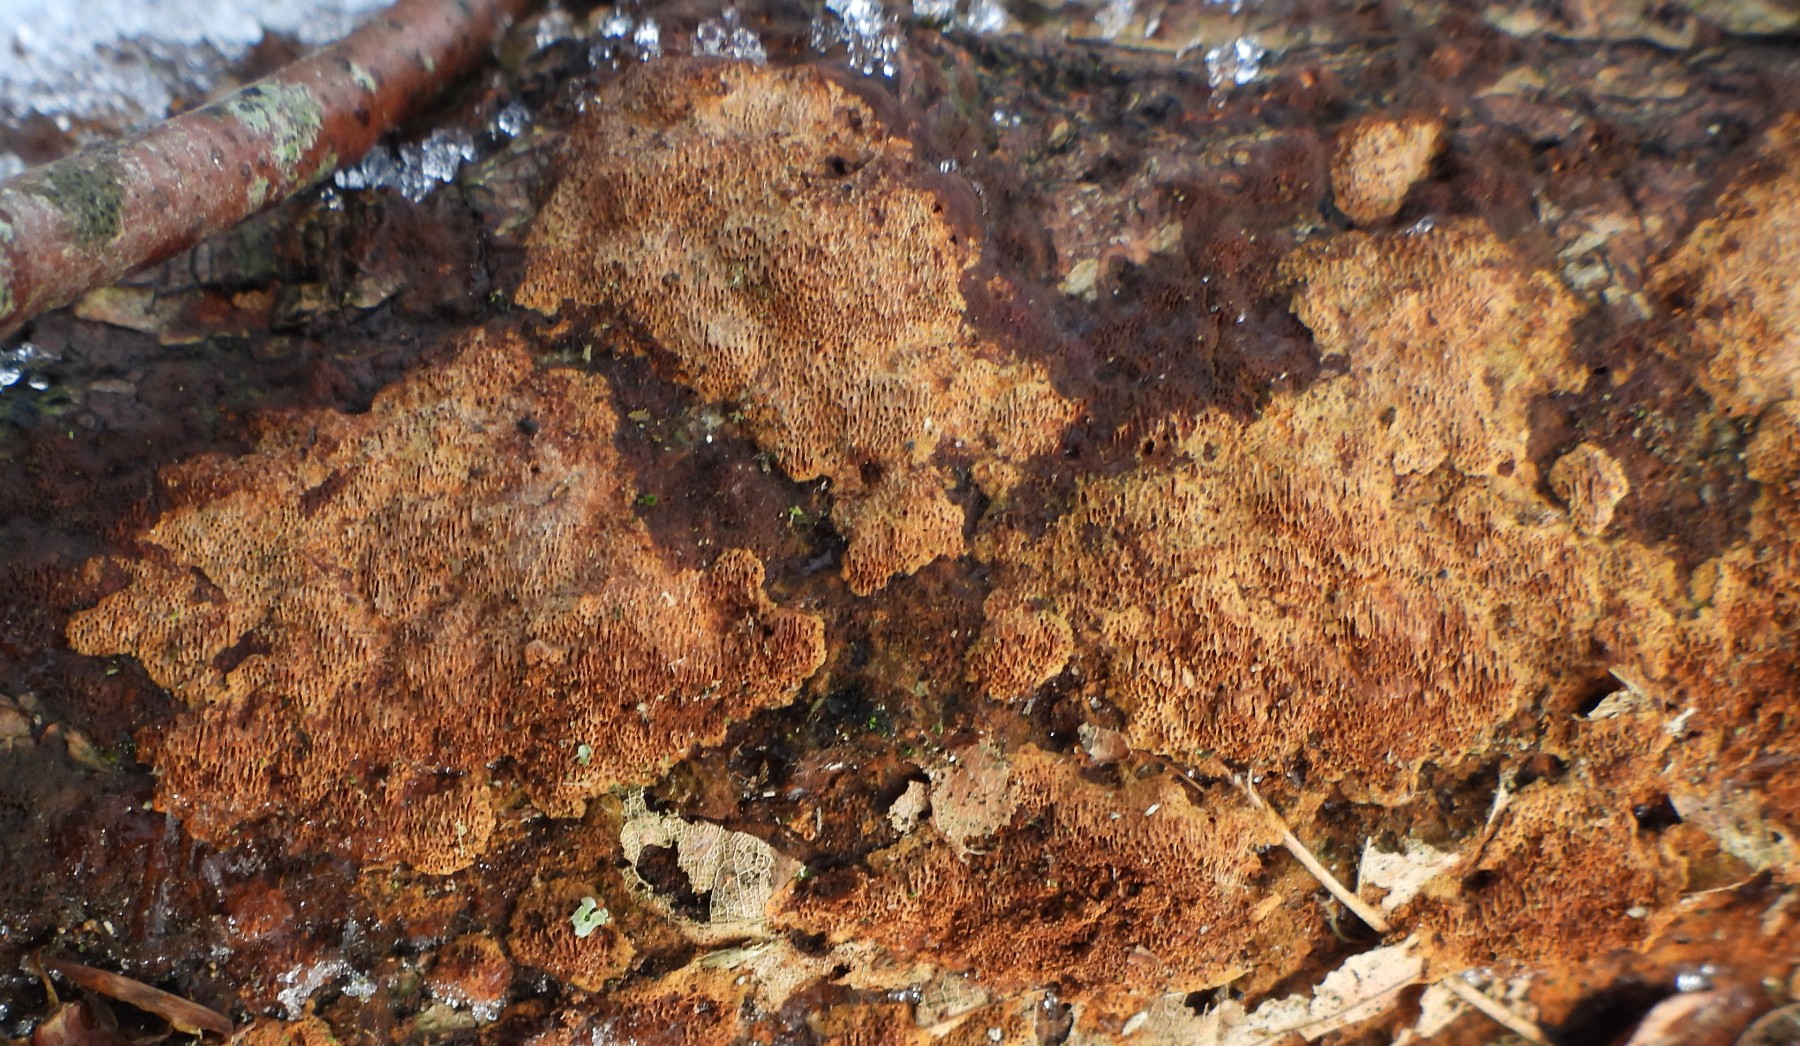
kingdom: Fungi
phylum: Basidiomycota
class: Agaricomycetes
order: Hymenochaetales
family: Hymenochaetaceae
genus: Fuscoporia
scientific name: Fuscoporia ferrea
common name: skorpe-ildporesvamp
